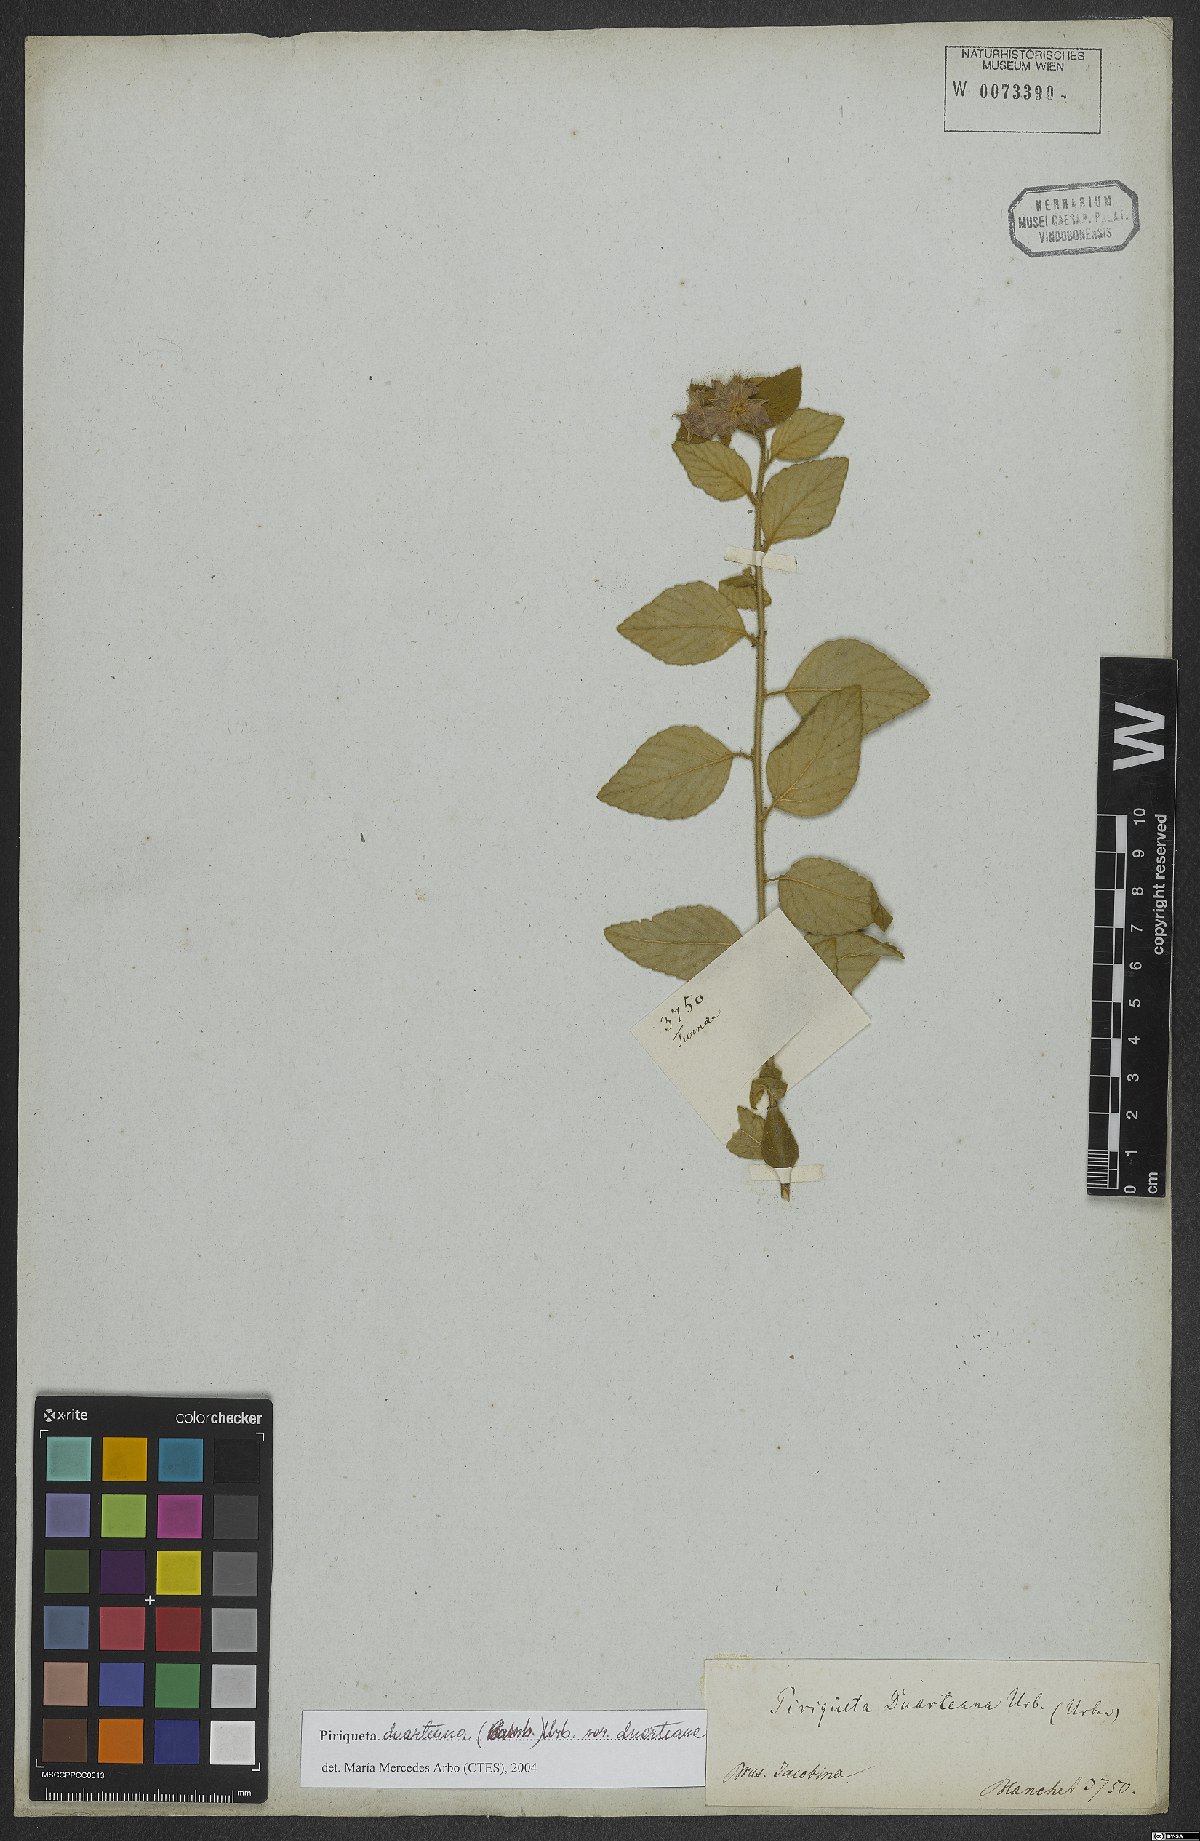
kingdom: Plantae
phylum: Tracheophyta
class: Magnoliopsida
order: Malpighiales
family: Turneraceae
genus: Piriqueta
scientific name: Piriqueta duarteana
